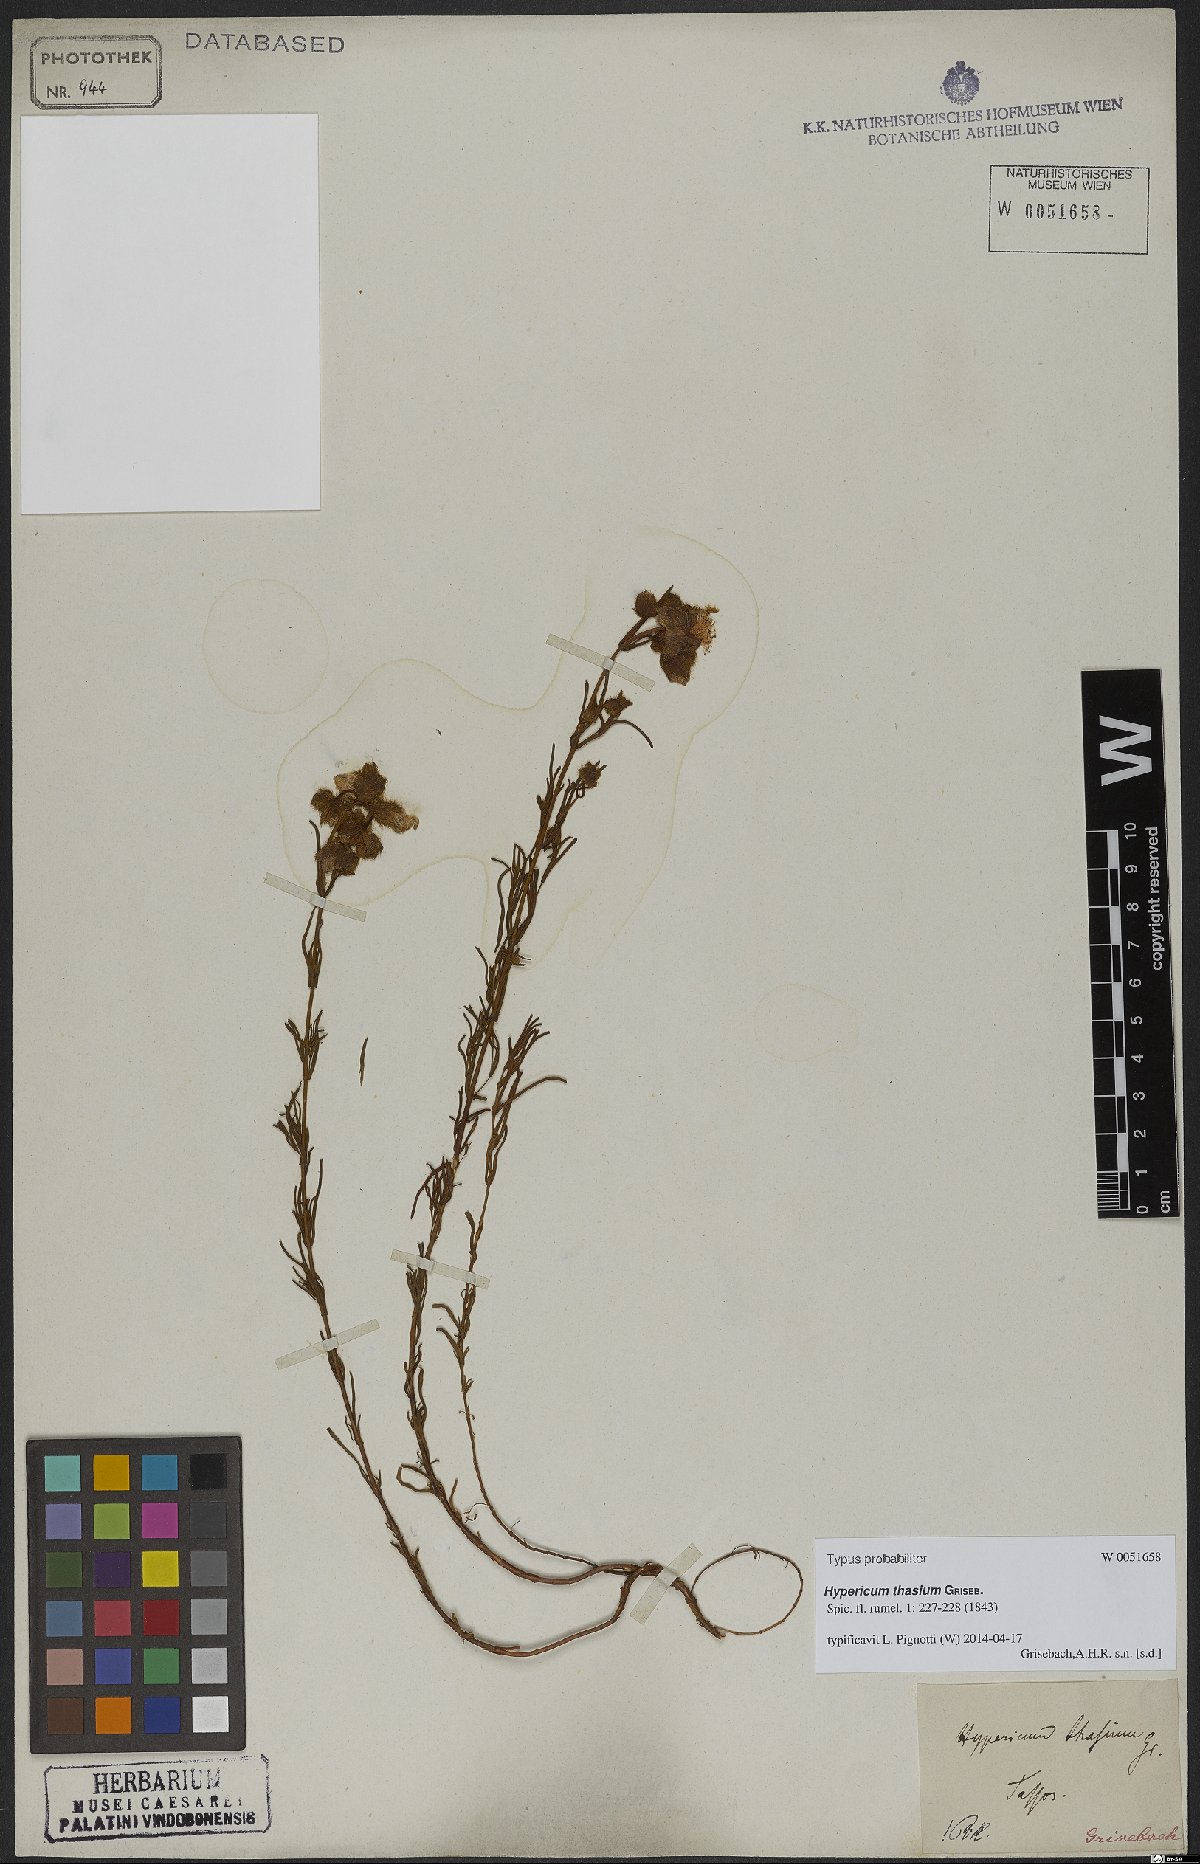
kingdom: Plantae
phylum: Tracheophyta
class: Magnoliopsida
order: Malpighiales
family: Hypericaceae
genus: Hypericum
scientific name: Hypericum thasium
